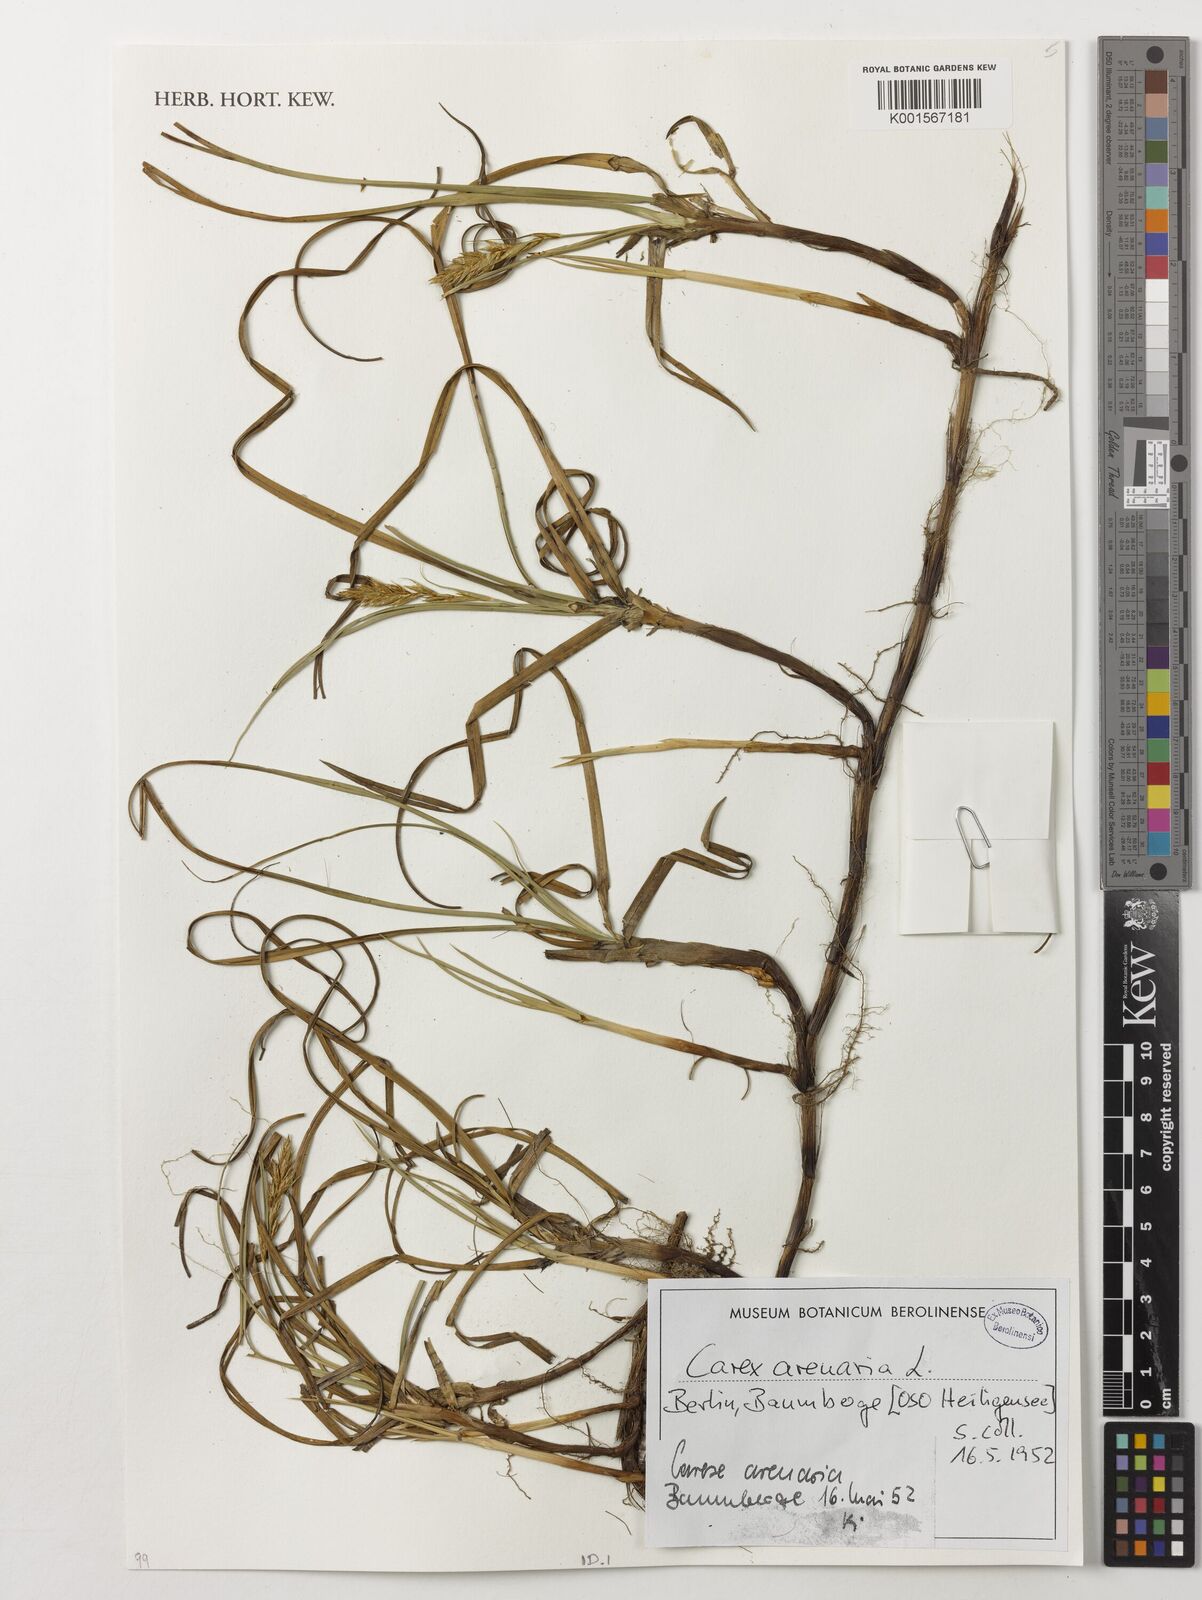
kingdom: Plantae
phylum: Tracheophyta
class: Liliopsida
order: Poales
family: Cyperaceae
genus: Carex
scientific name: Carex arenaria
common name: Sand sedge
